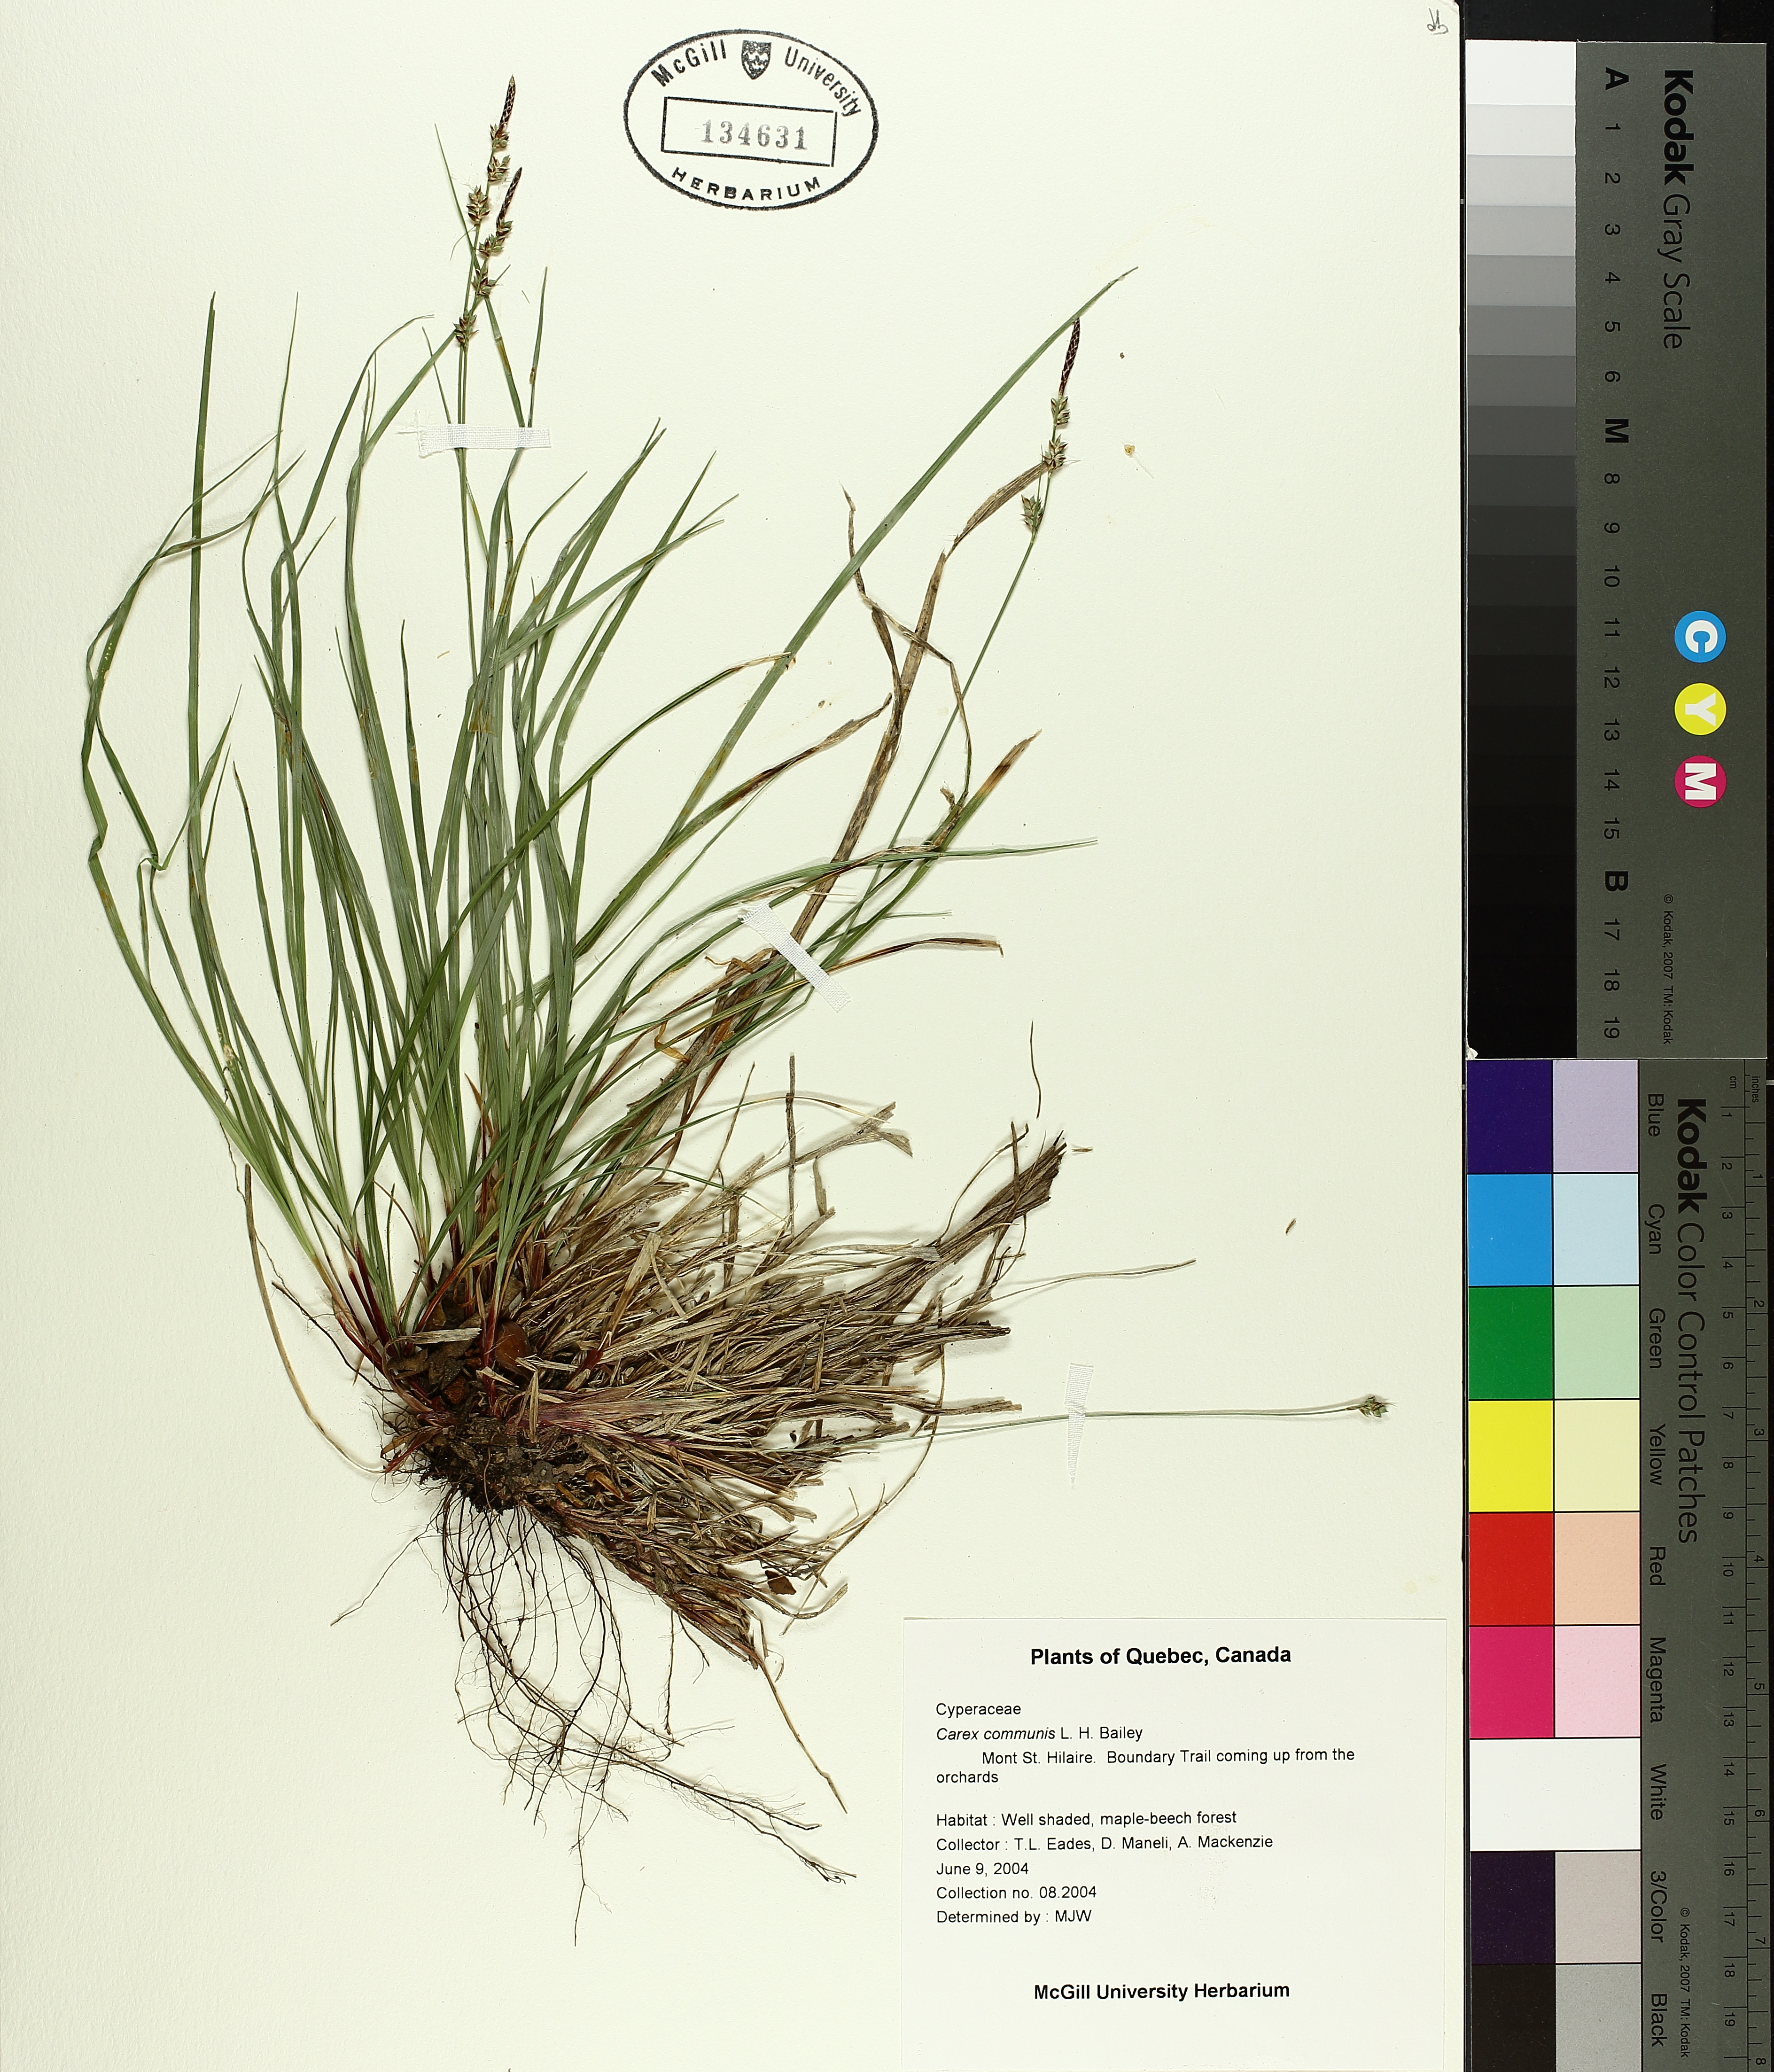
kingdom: Plantae
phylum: Tracheophyta
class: Liliopsida
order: Poales
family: Cyperaceae
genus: Carex
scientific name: Carex communis
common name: Colonial oak sedge
